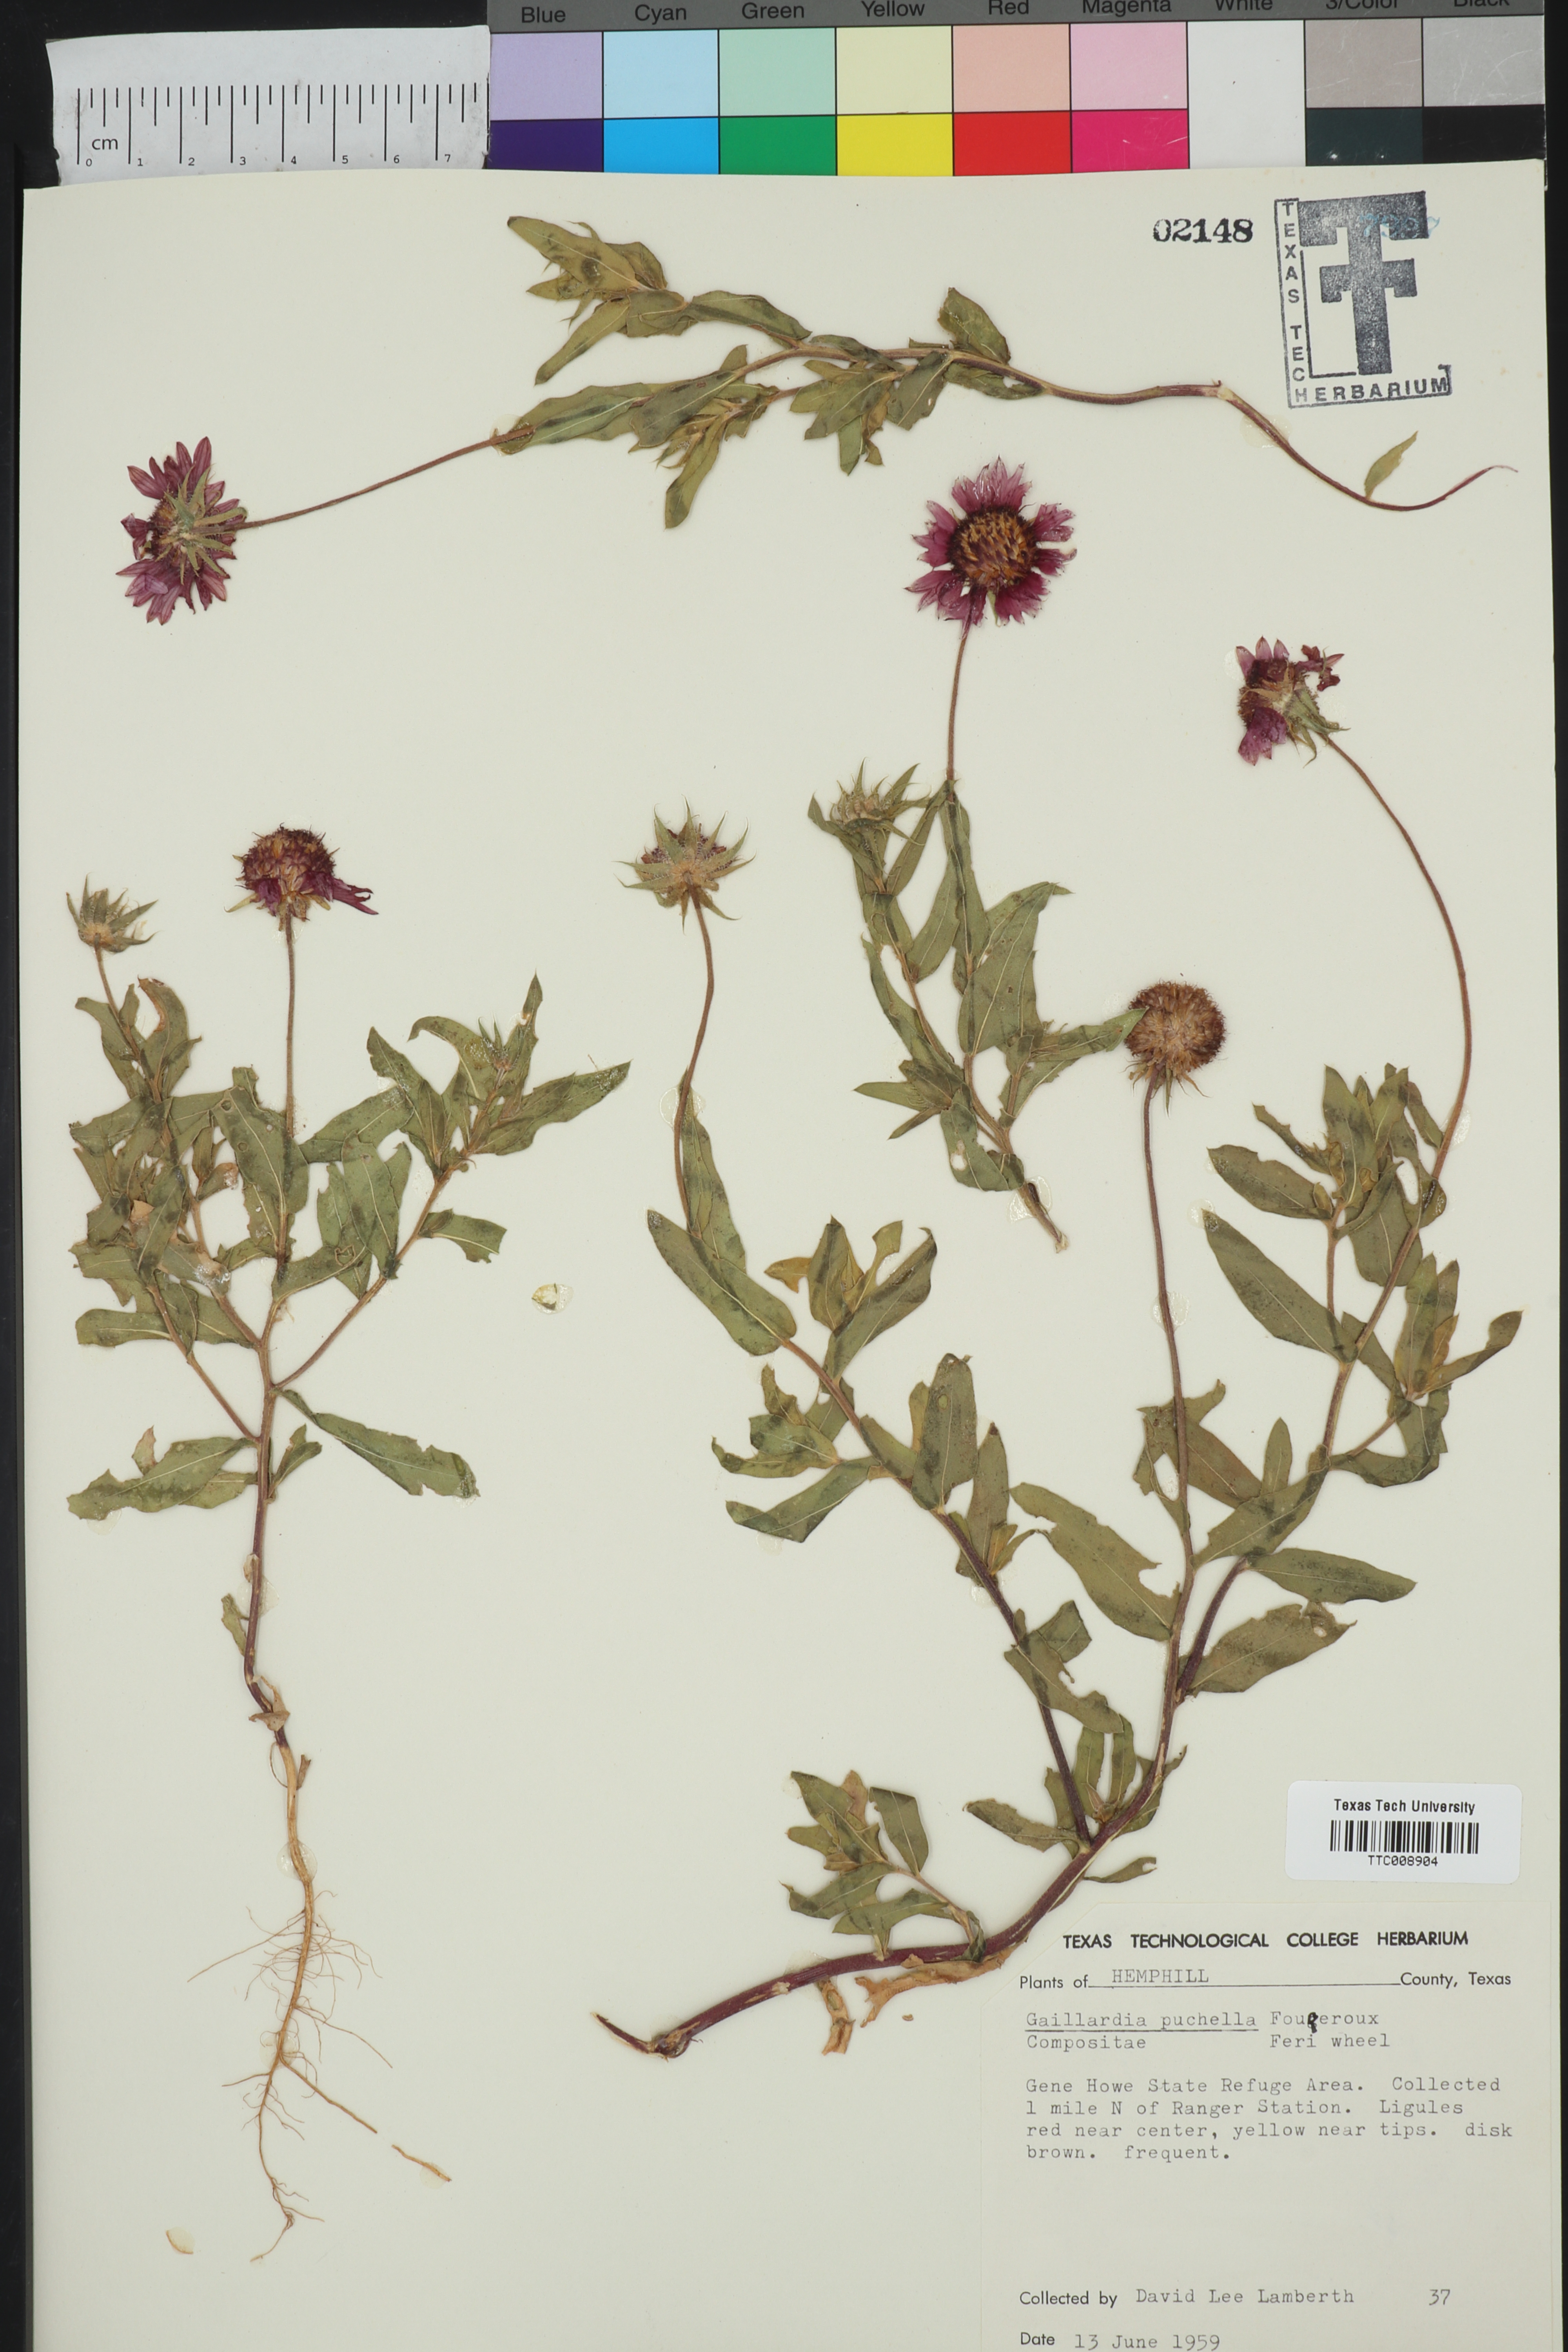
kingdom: Plantae
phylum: Tracheophyta
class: Magnoliopsida
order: Asterales
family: Asteraceae
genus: Gaillardia
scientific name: Gaillardia pulchella
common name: Firewheel
